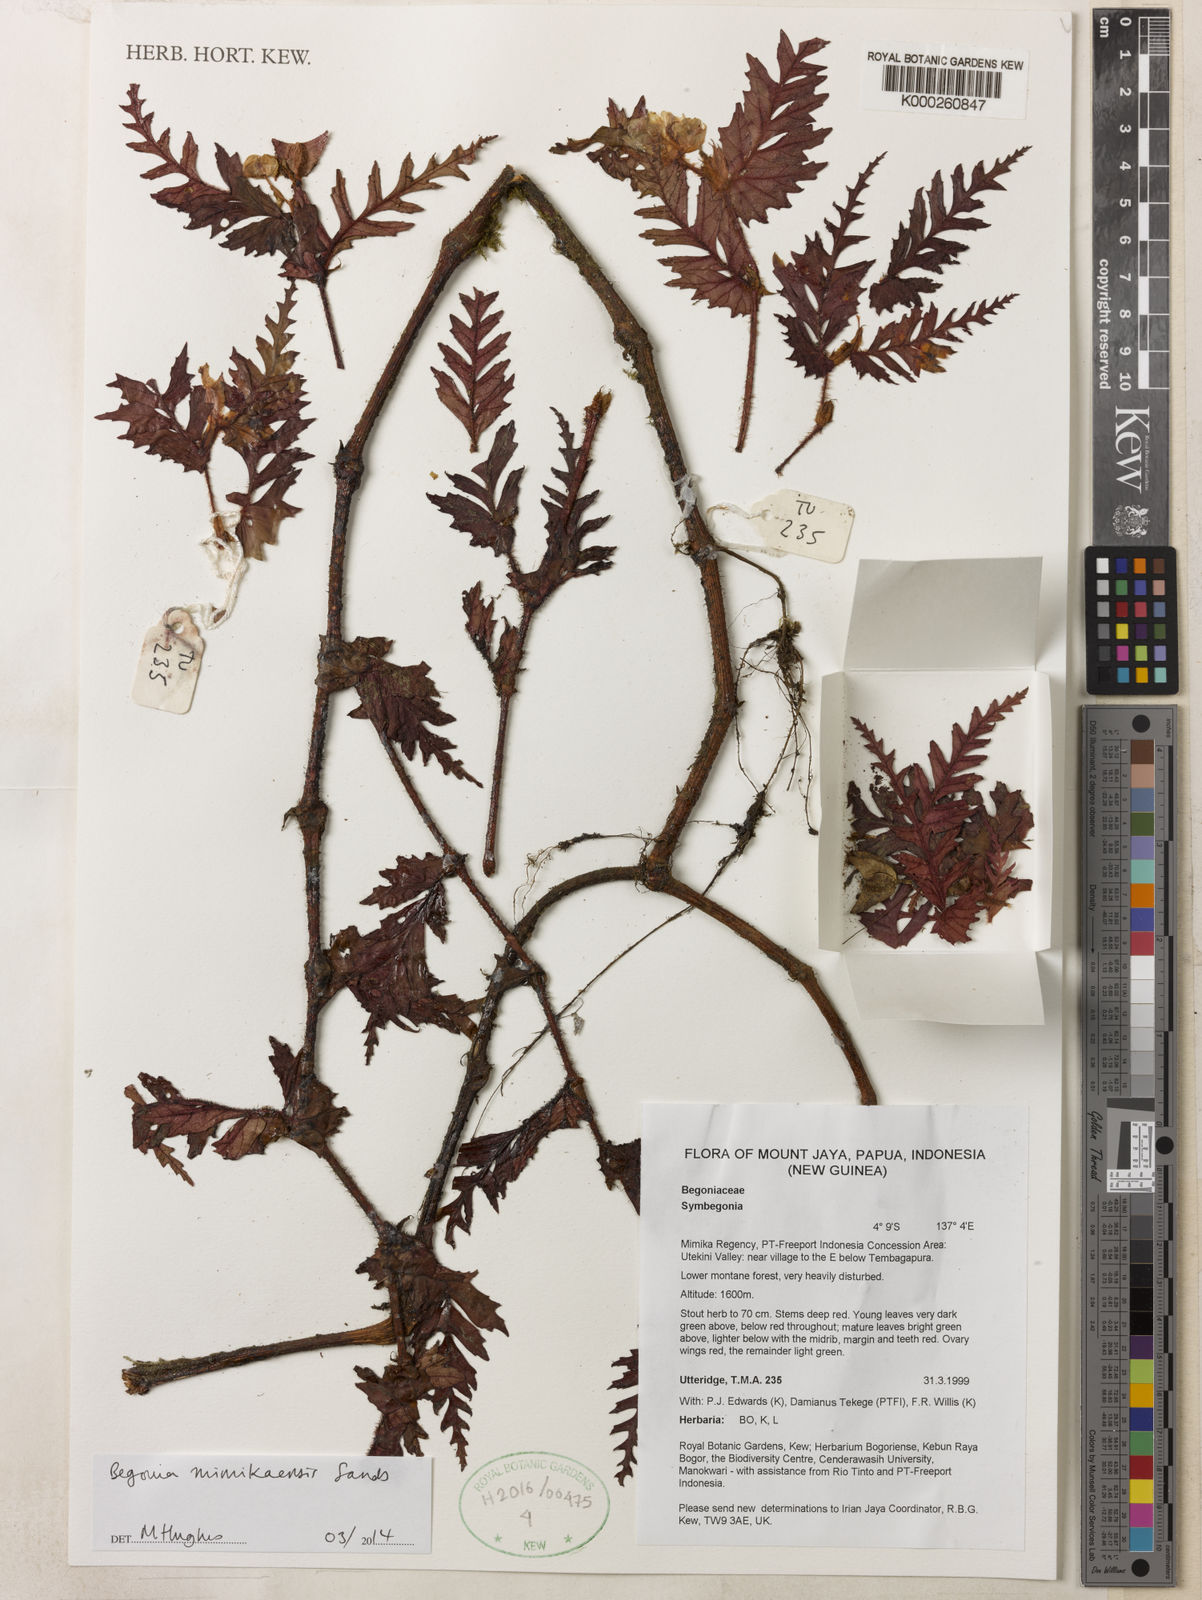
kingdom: Plantae
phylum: Tracheophyta
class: Magnoliopsida
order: Cucurbitales
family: Begoniaceae
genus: Begonia
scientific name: Begonia mimikaensis
